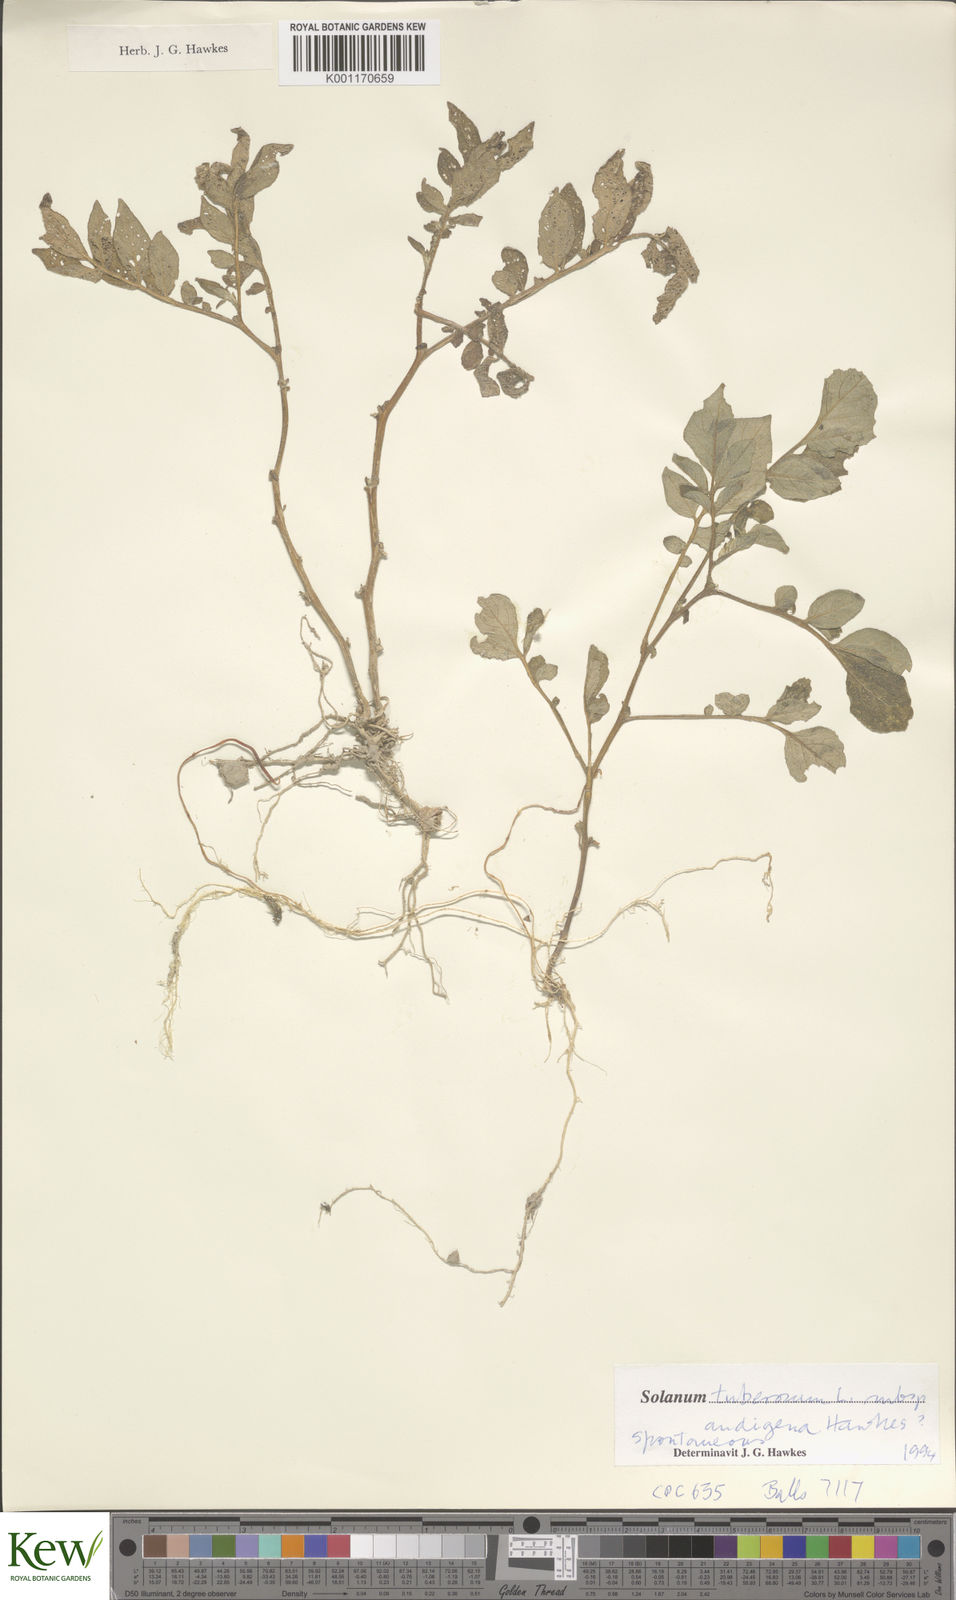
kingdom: Plantae
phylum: Tracheophyta
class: Magnoliopsida
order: Solanales
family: Solanaceae
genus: Solanum
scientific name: Solanum tuberosum
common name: Potato
